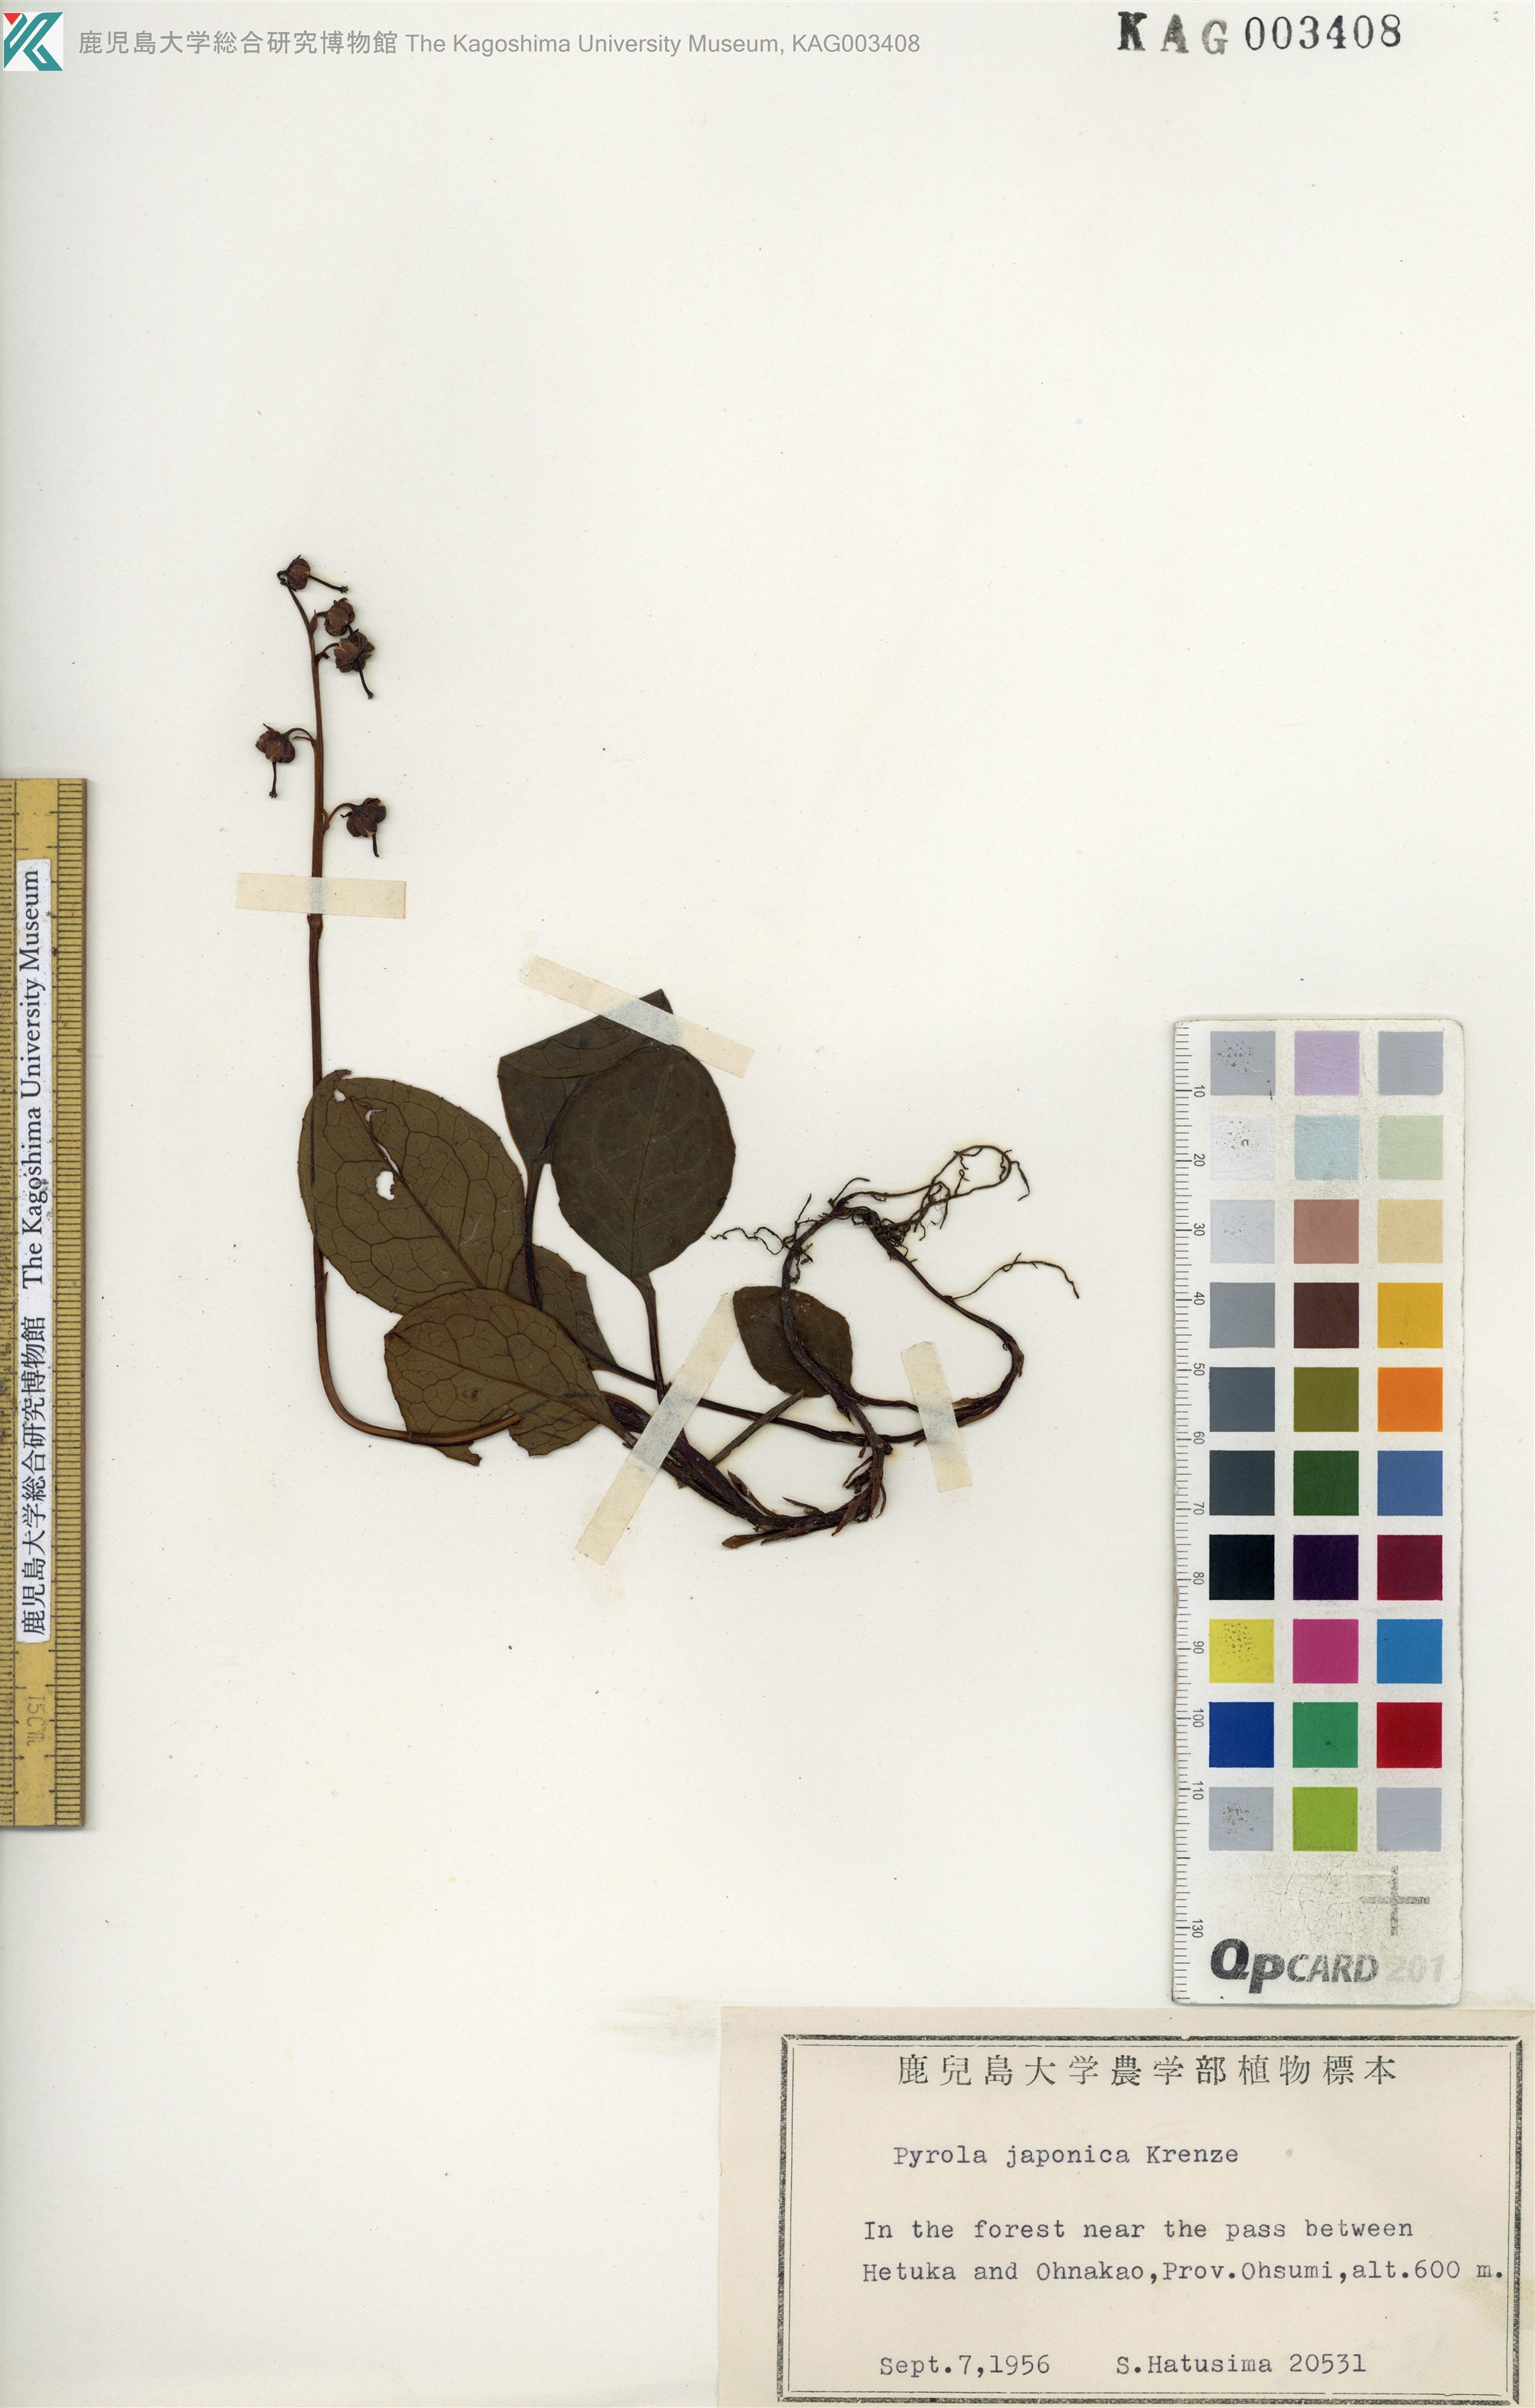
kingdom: Plantae
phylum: Tracheophyta
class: Magnoliopsida
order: Ericales
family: Ericaceae
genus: Pyrola
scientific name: Pyrola japonica
